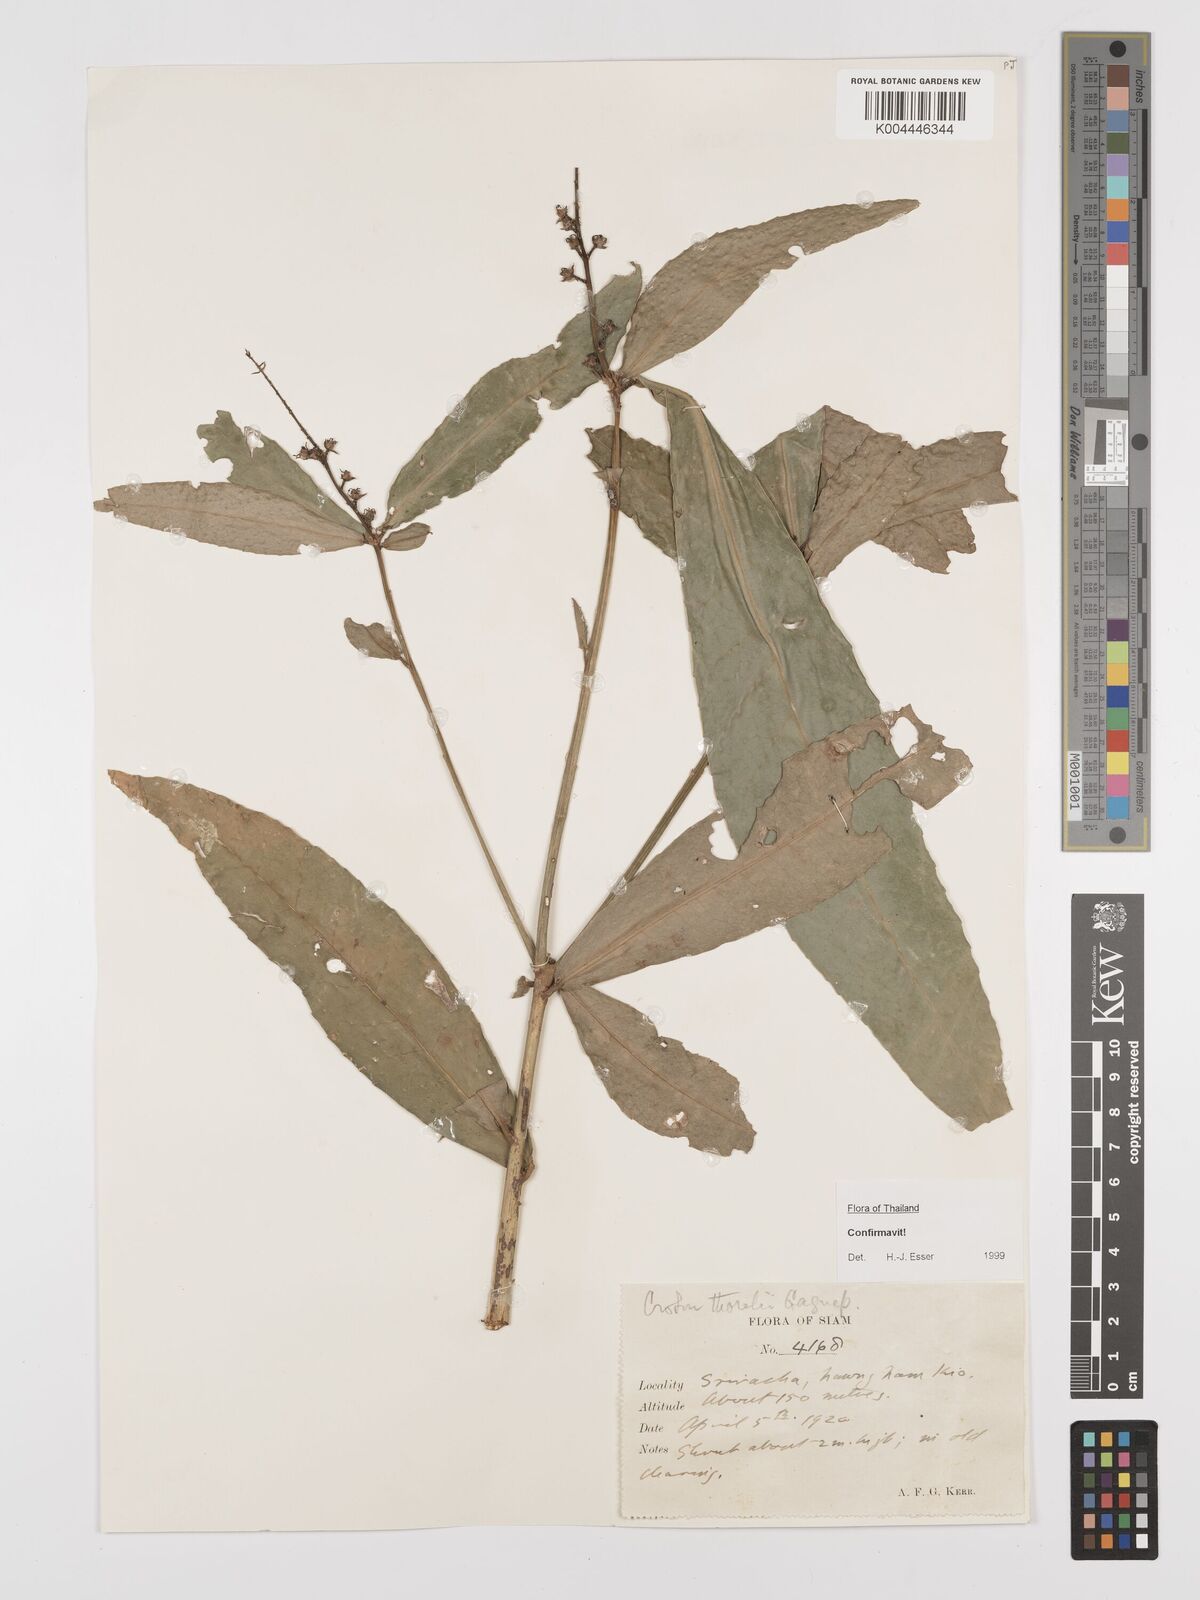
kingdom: Plantae
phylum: Tracheophyta
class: Magnoliopsida
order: Malpighiales
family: Euphorbiaceae
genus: Croton
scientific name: Croton thorelii
